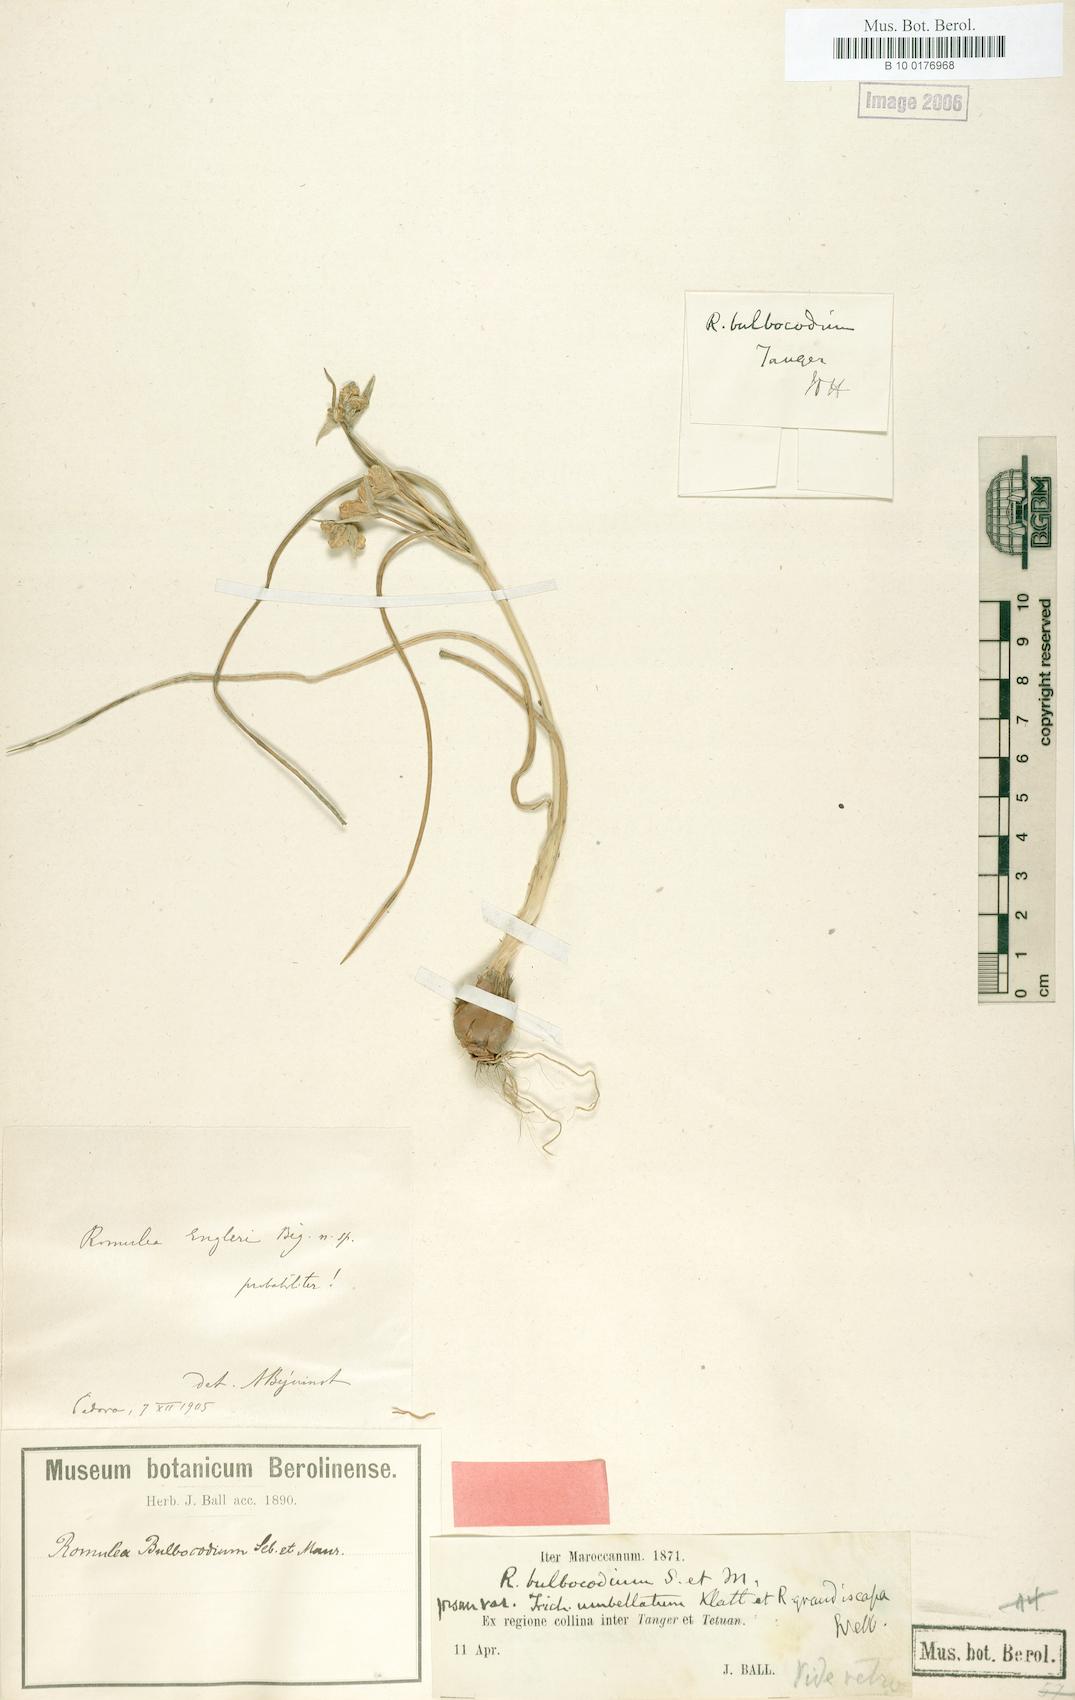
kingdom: Plantae
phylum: Tracheophyta
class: Liliopsida
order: Asparagales
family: Iridaceae
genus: Romulea
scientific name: Romulea engleri
